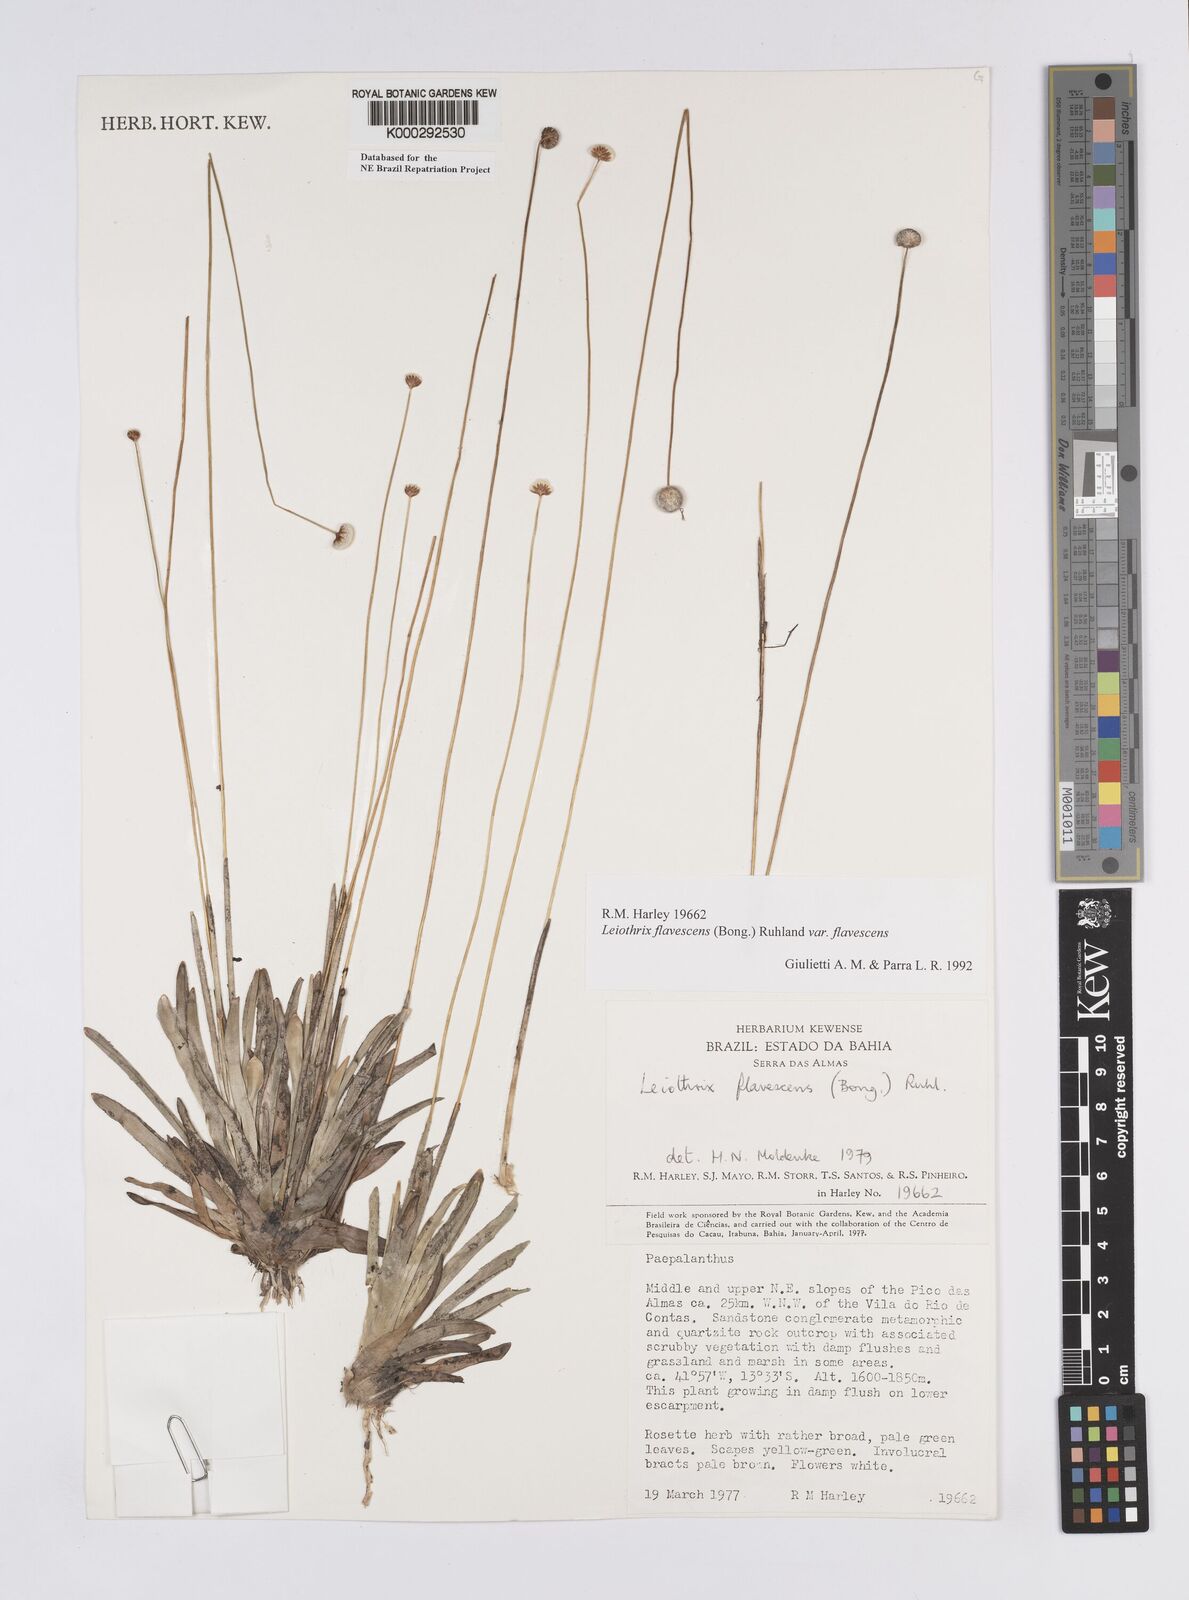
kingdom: Plantae
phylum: Tracheophyta
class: Liliopsida
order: Poales
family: Eriocaulaceae
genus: Leiothrix
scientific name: Leiothrix flavescens
